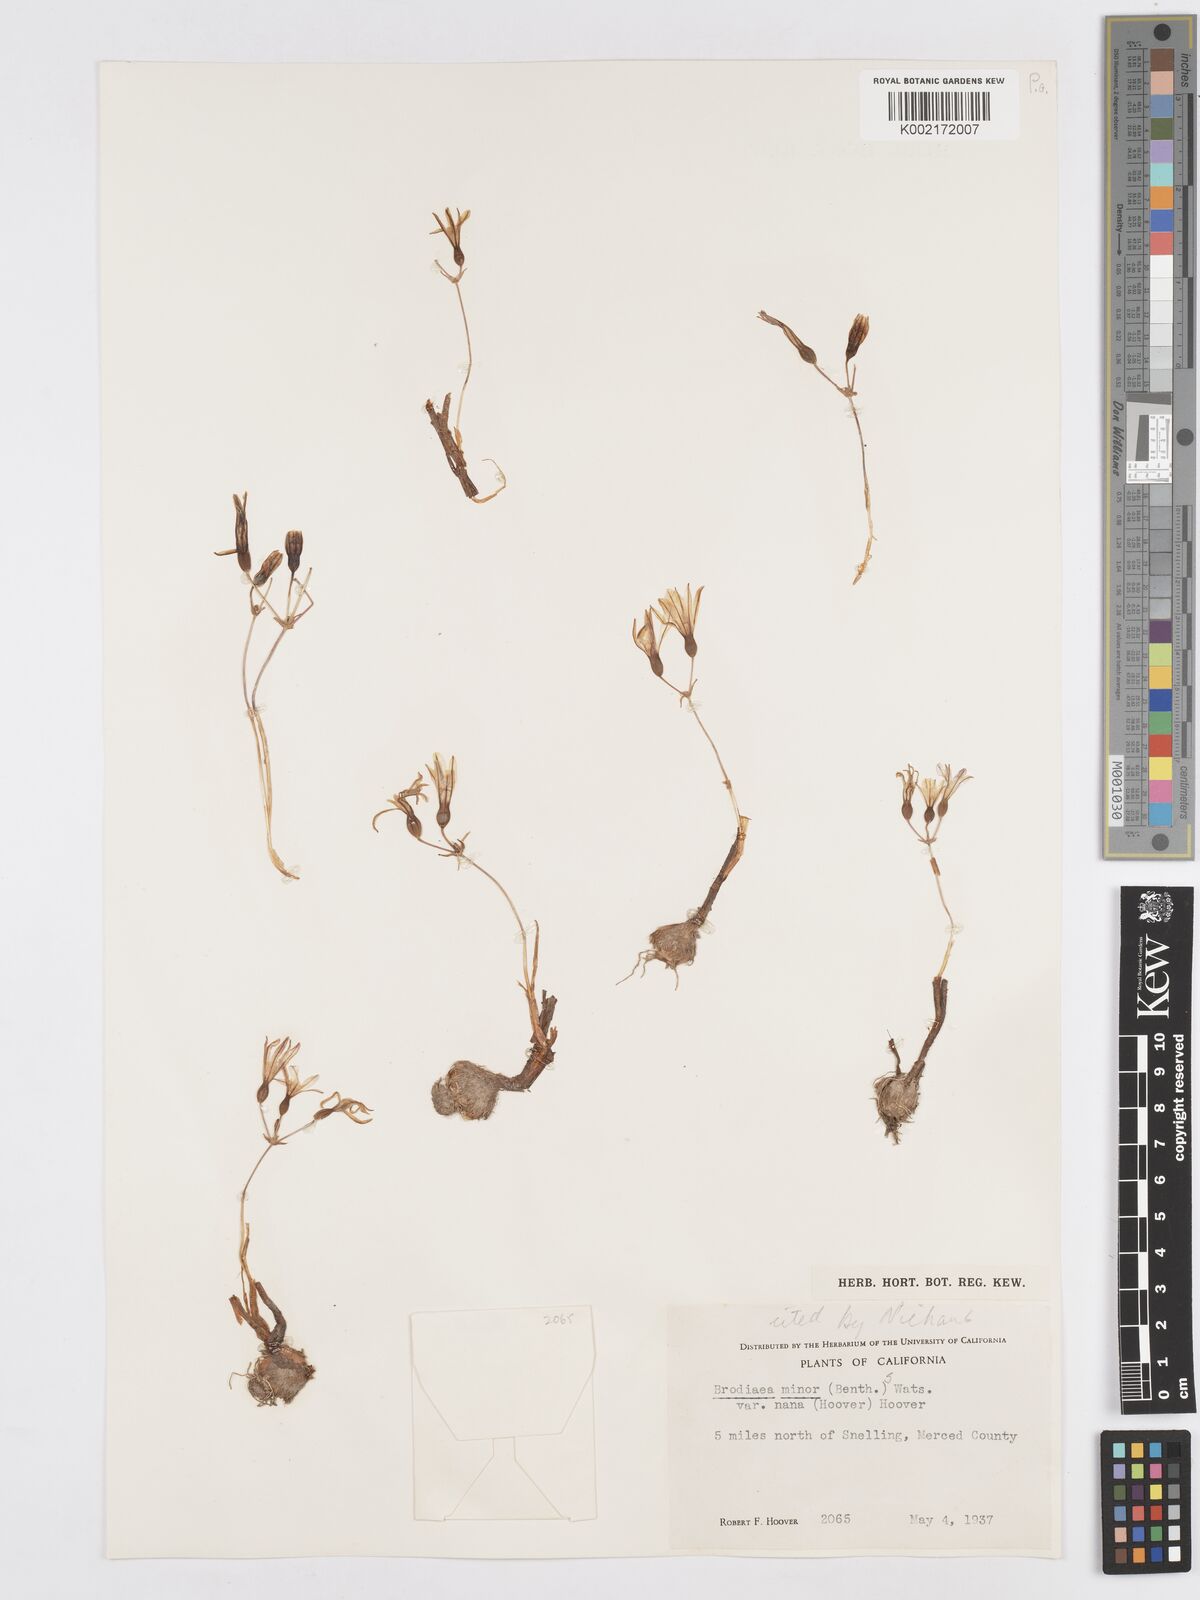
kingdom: Plantae
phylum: Tracheophyta
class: Liliopsida
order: Asparagales
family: Asparagaceae
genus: Brodiaea
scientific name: Brodiaea minor
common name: Dwarf brodiaea
